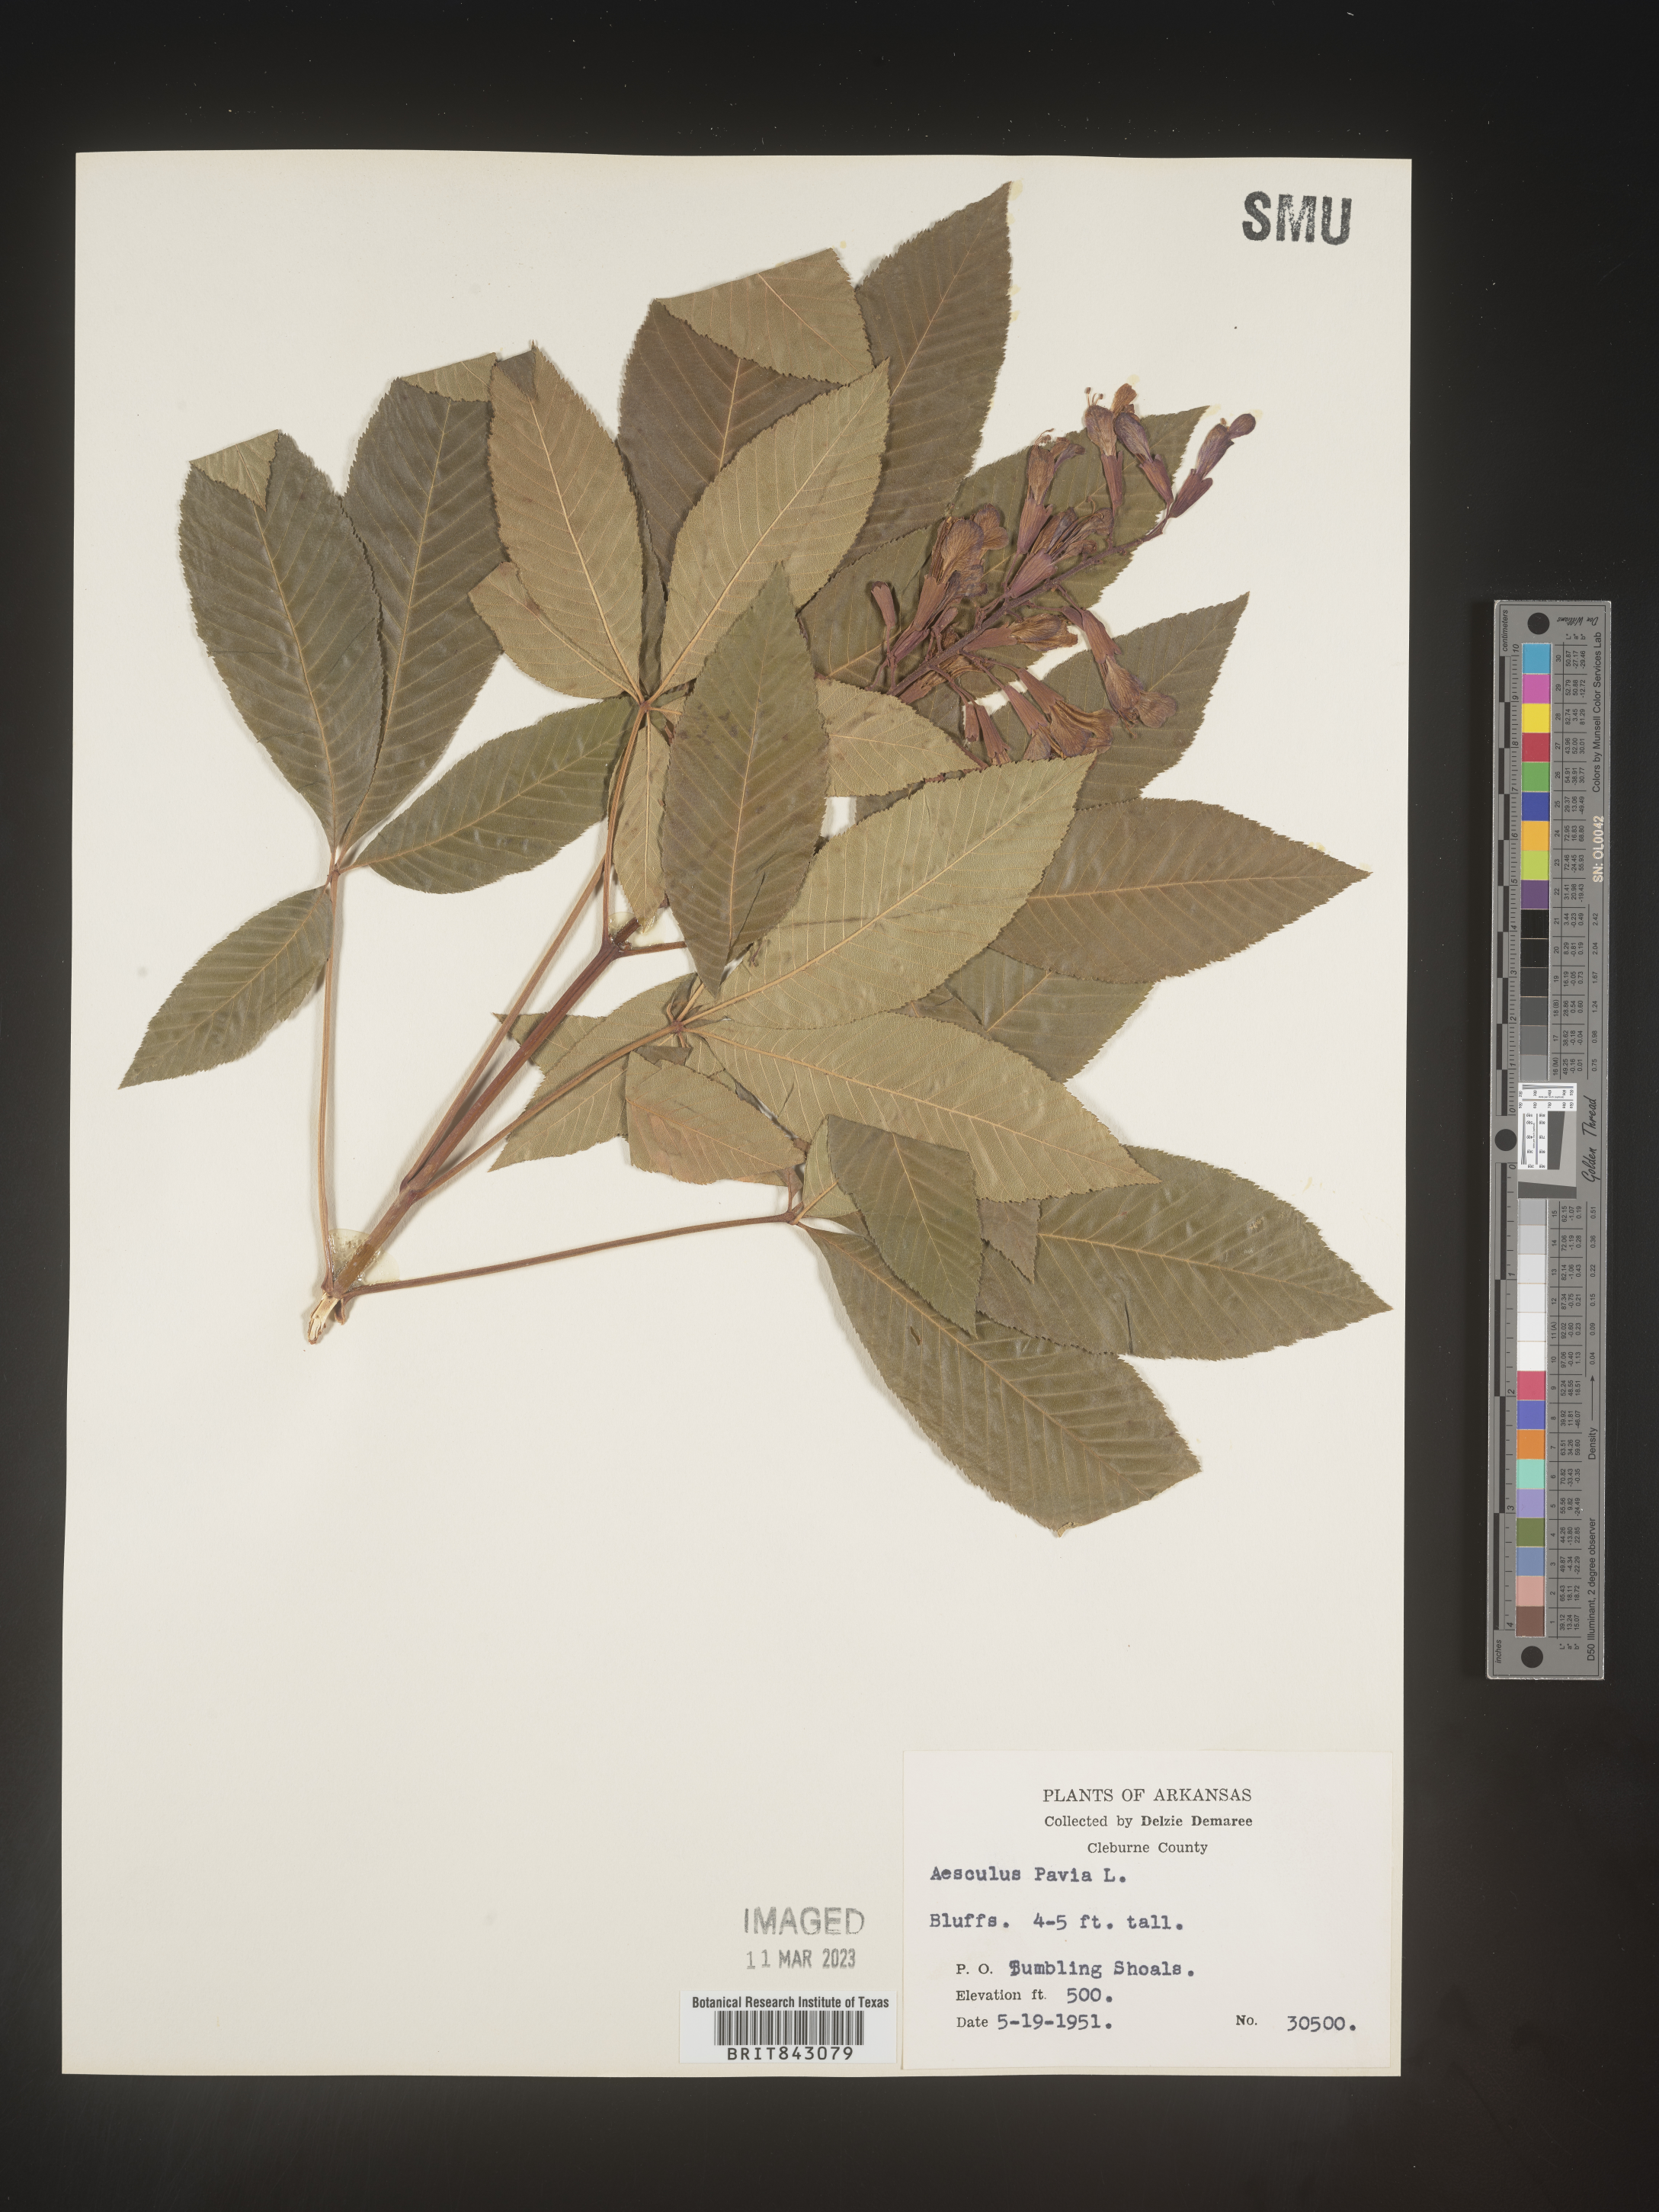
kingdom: Plantae
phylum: Tracheophyta
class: Magnoliopsida
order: Sapindales
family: Sapindaceae
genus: Aesculus
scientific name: Aesculus pavia
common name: Red buckeye
